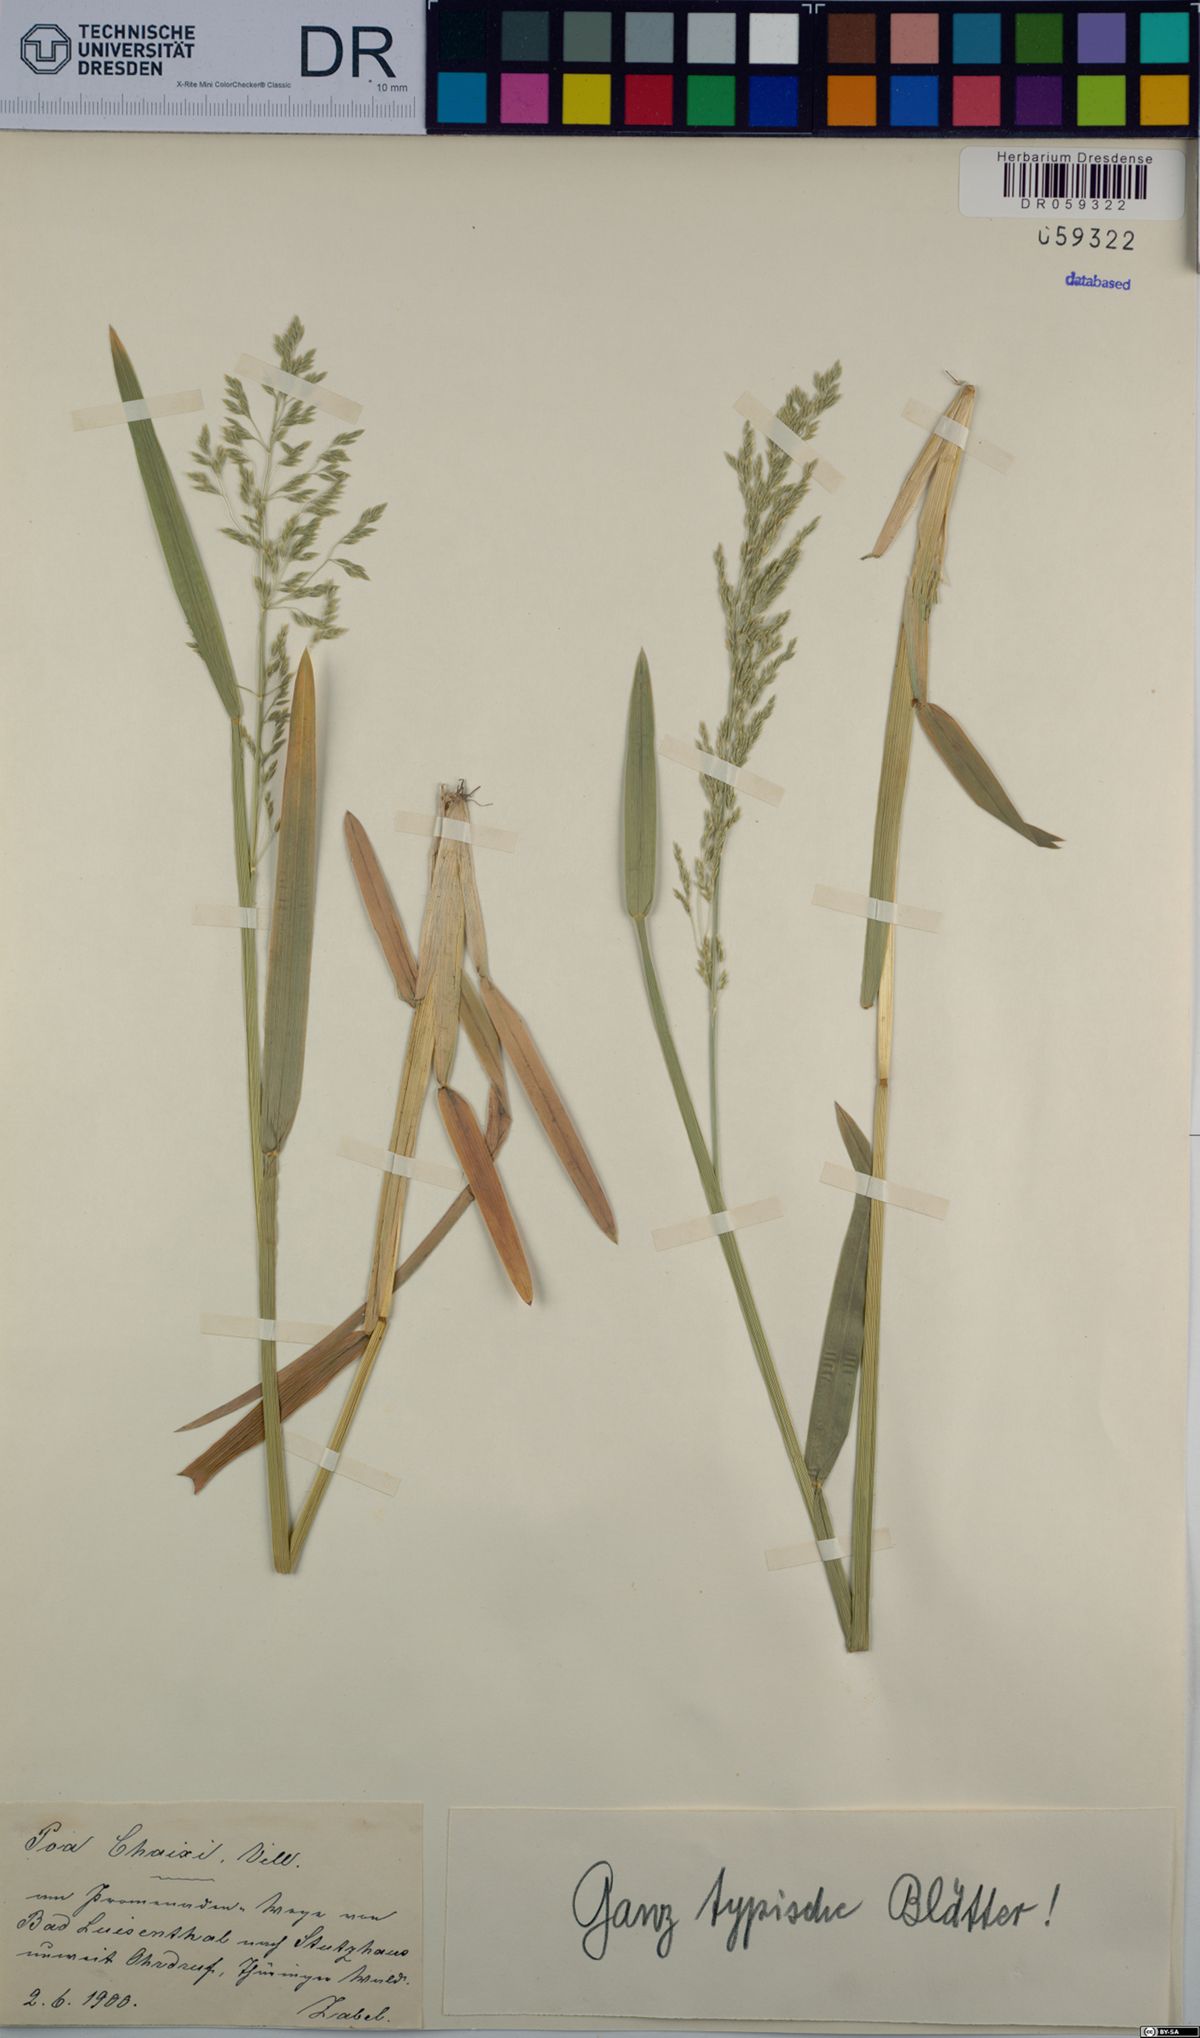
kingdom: Plantae
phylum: Tracheophyta
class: Liliopsida
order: Poales
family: Poaceae
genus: Poa
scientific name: Poa chaixii
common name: Broad-leaved meadow-grass
